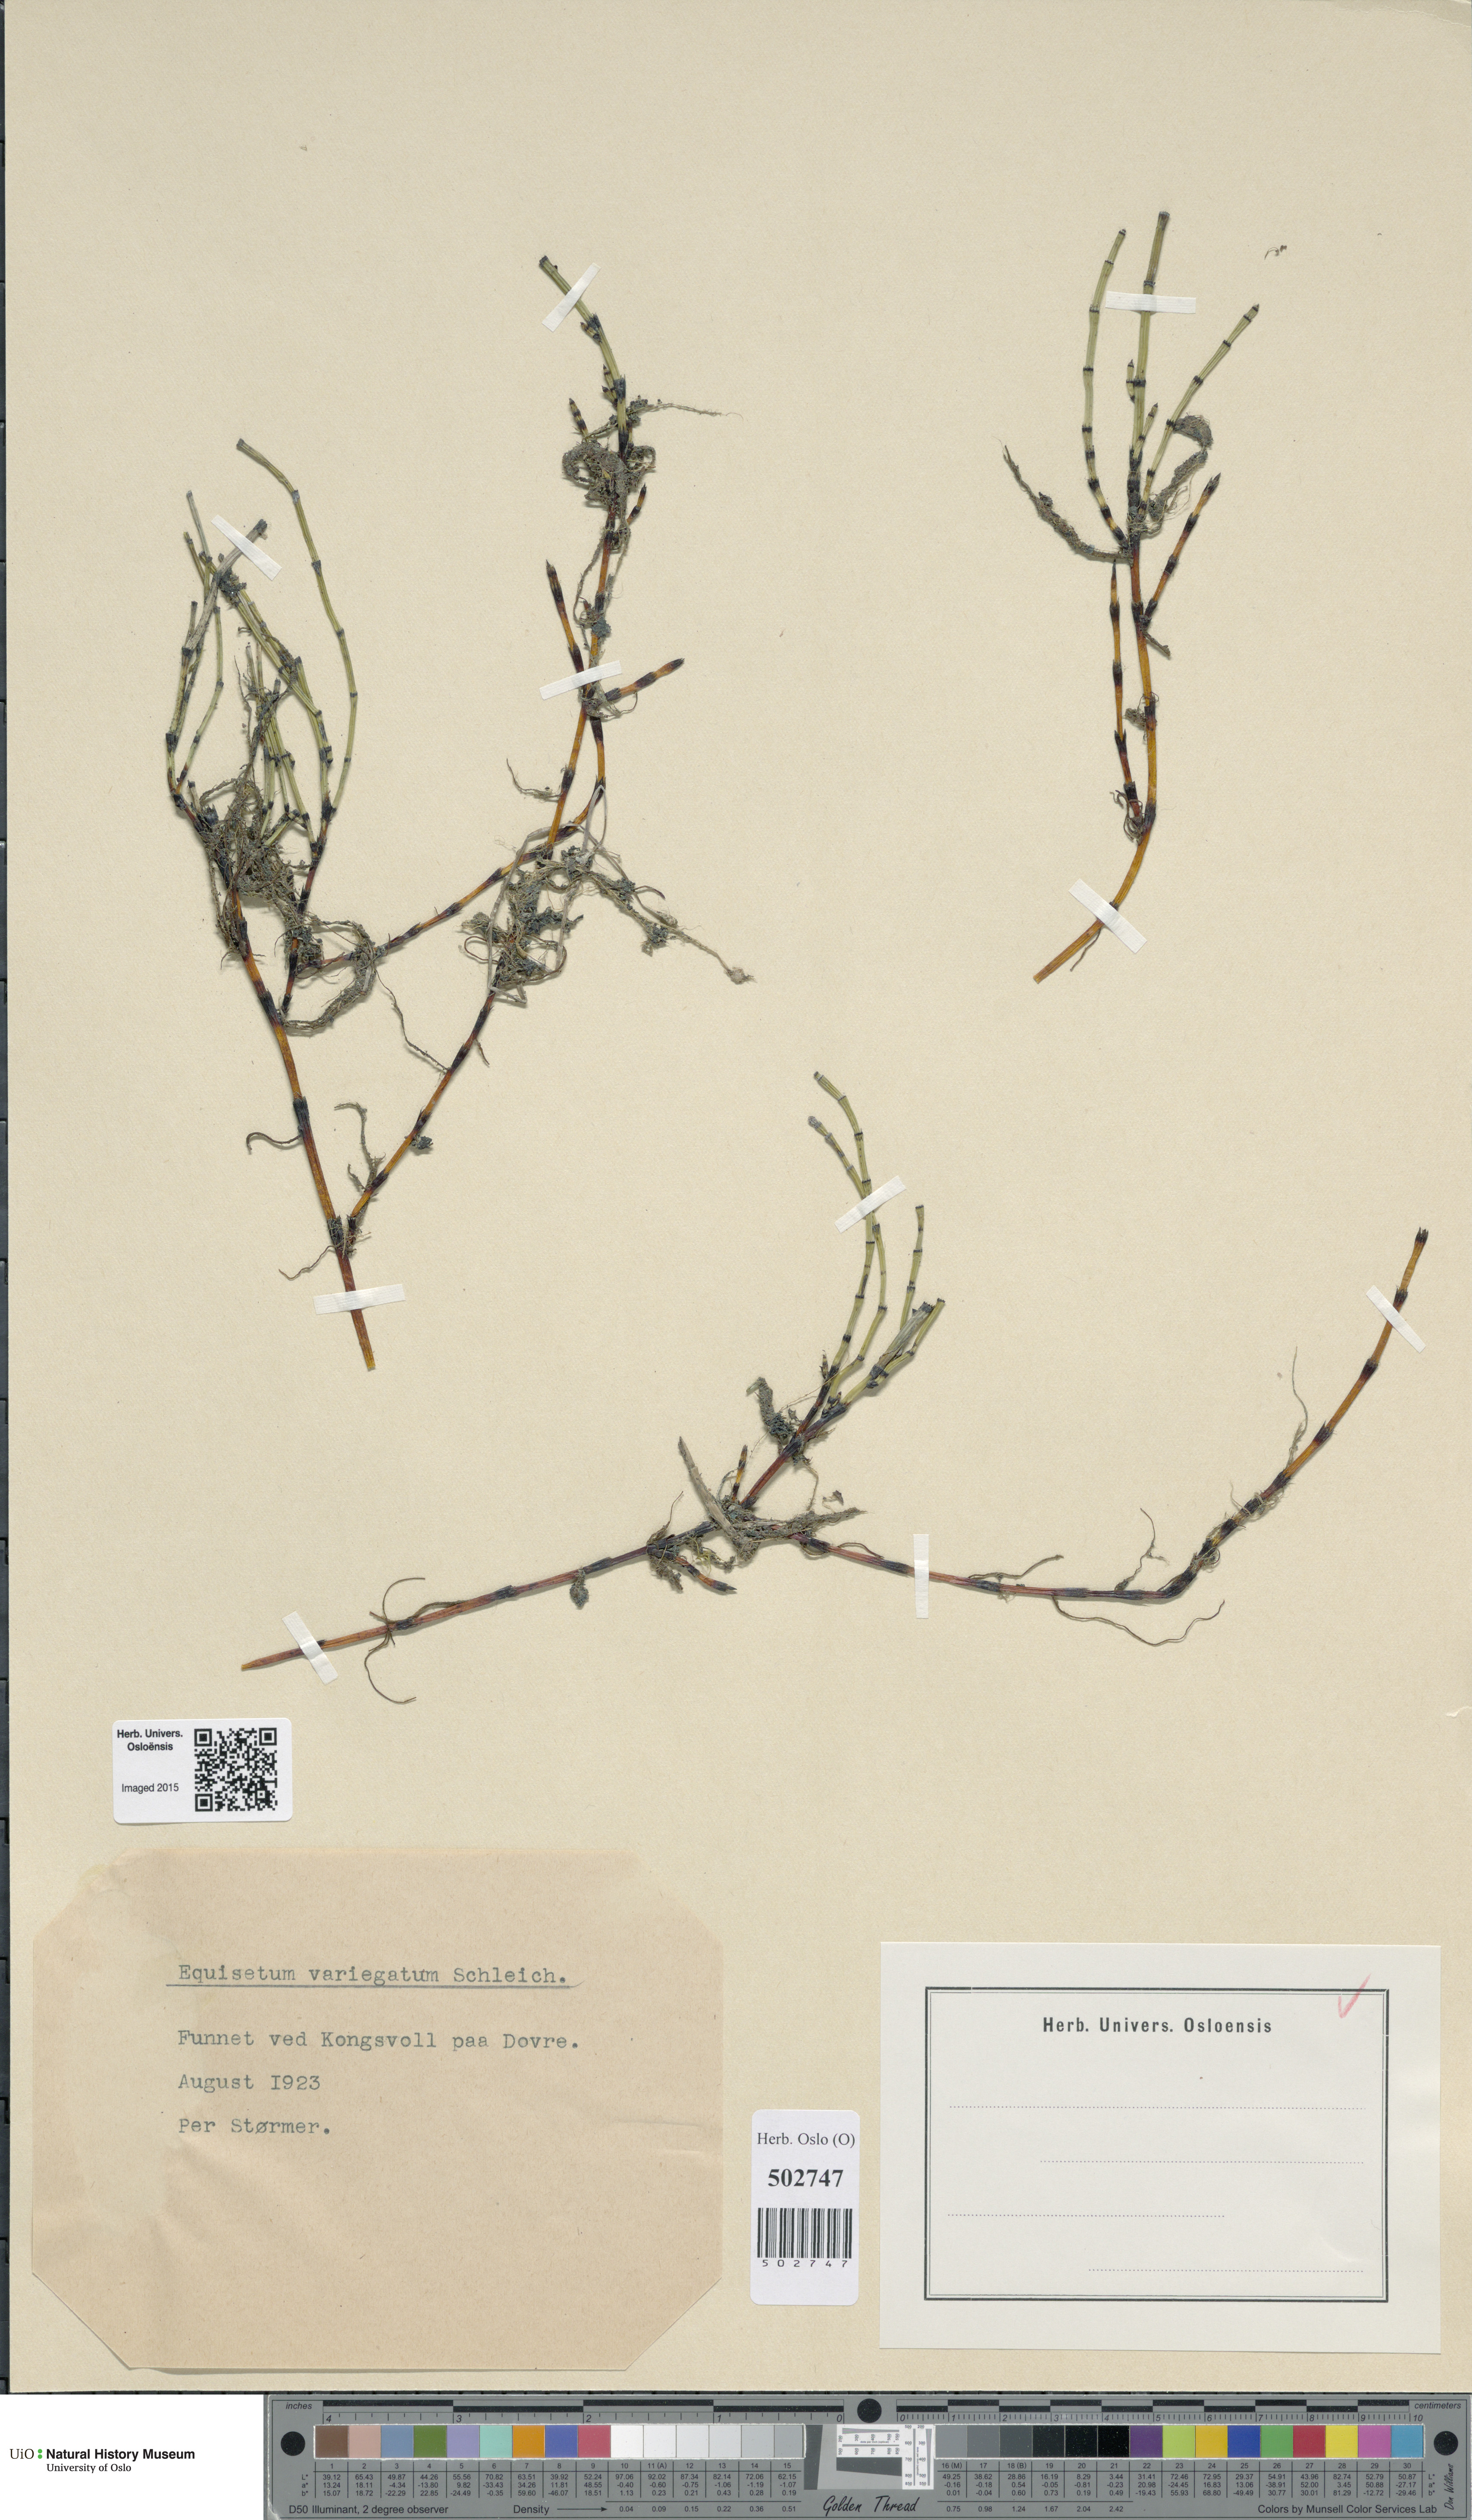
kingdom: Plantae
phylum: Tracheophyta
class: Polypodiopsida
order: Equisetales
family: Equisetaceae
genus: Equisetum
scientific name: Equisetum variegatum
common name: Variegated horsetail
